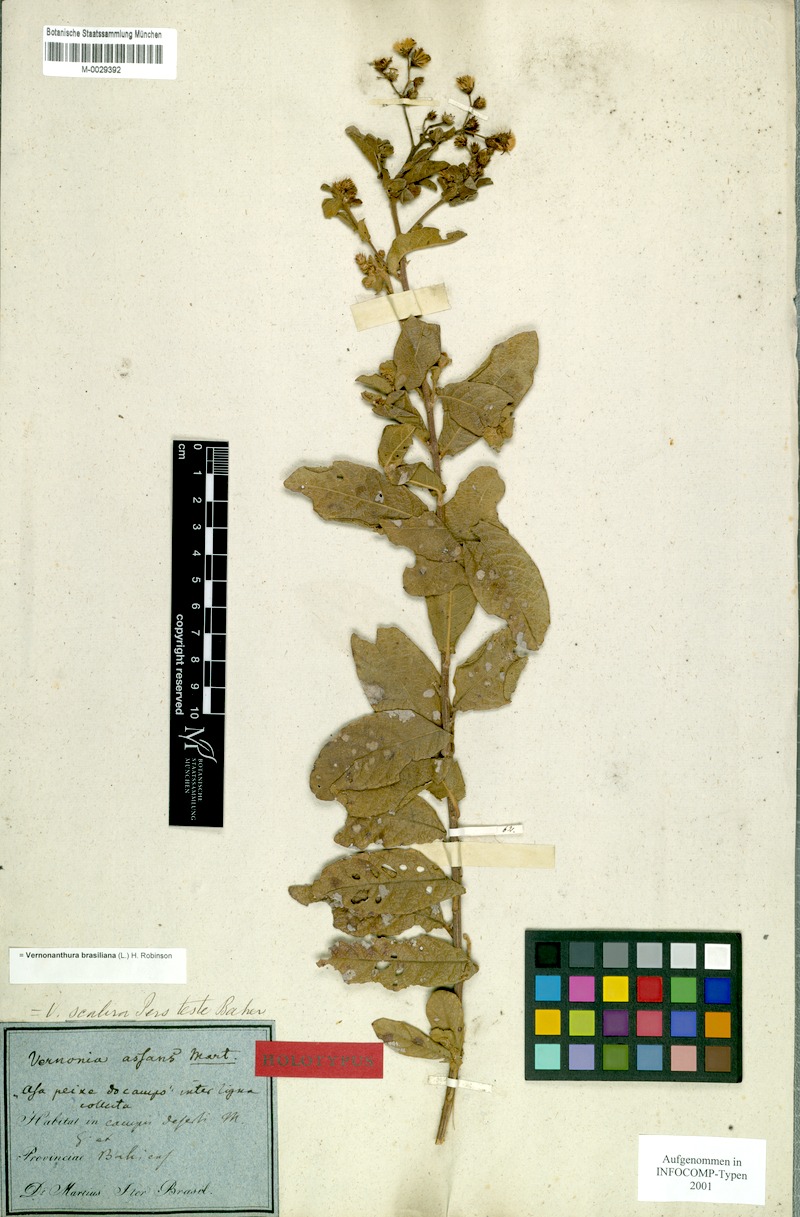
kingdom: Plantae
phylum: Tracheophyta
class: Magnoliopsida
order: Asterales
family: Asteraceae
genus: Vernonanthura
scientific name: Vernonanthura brasiliana
